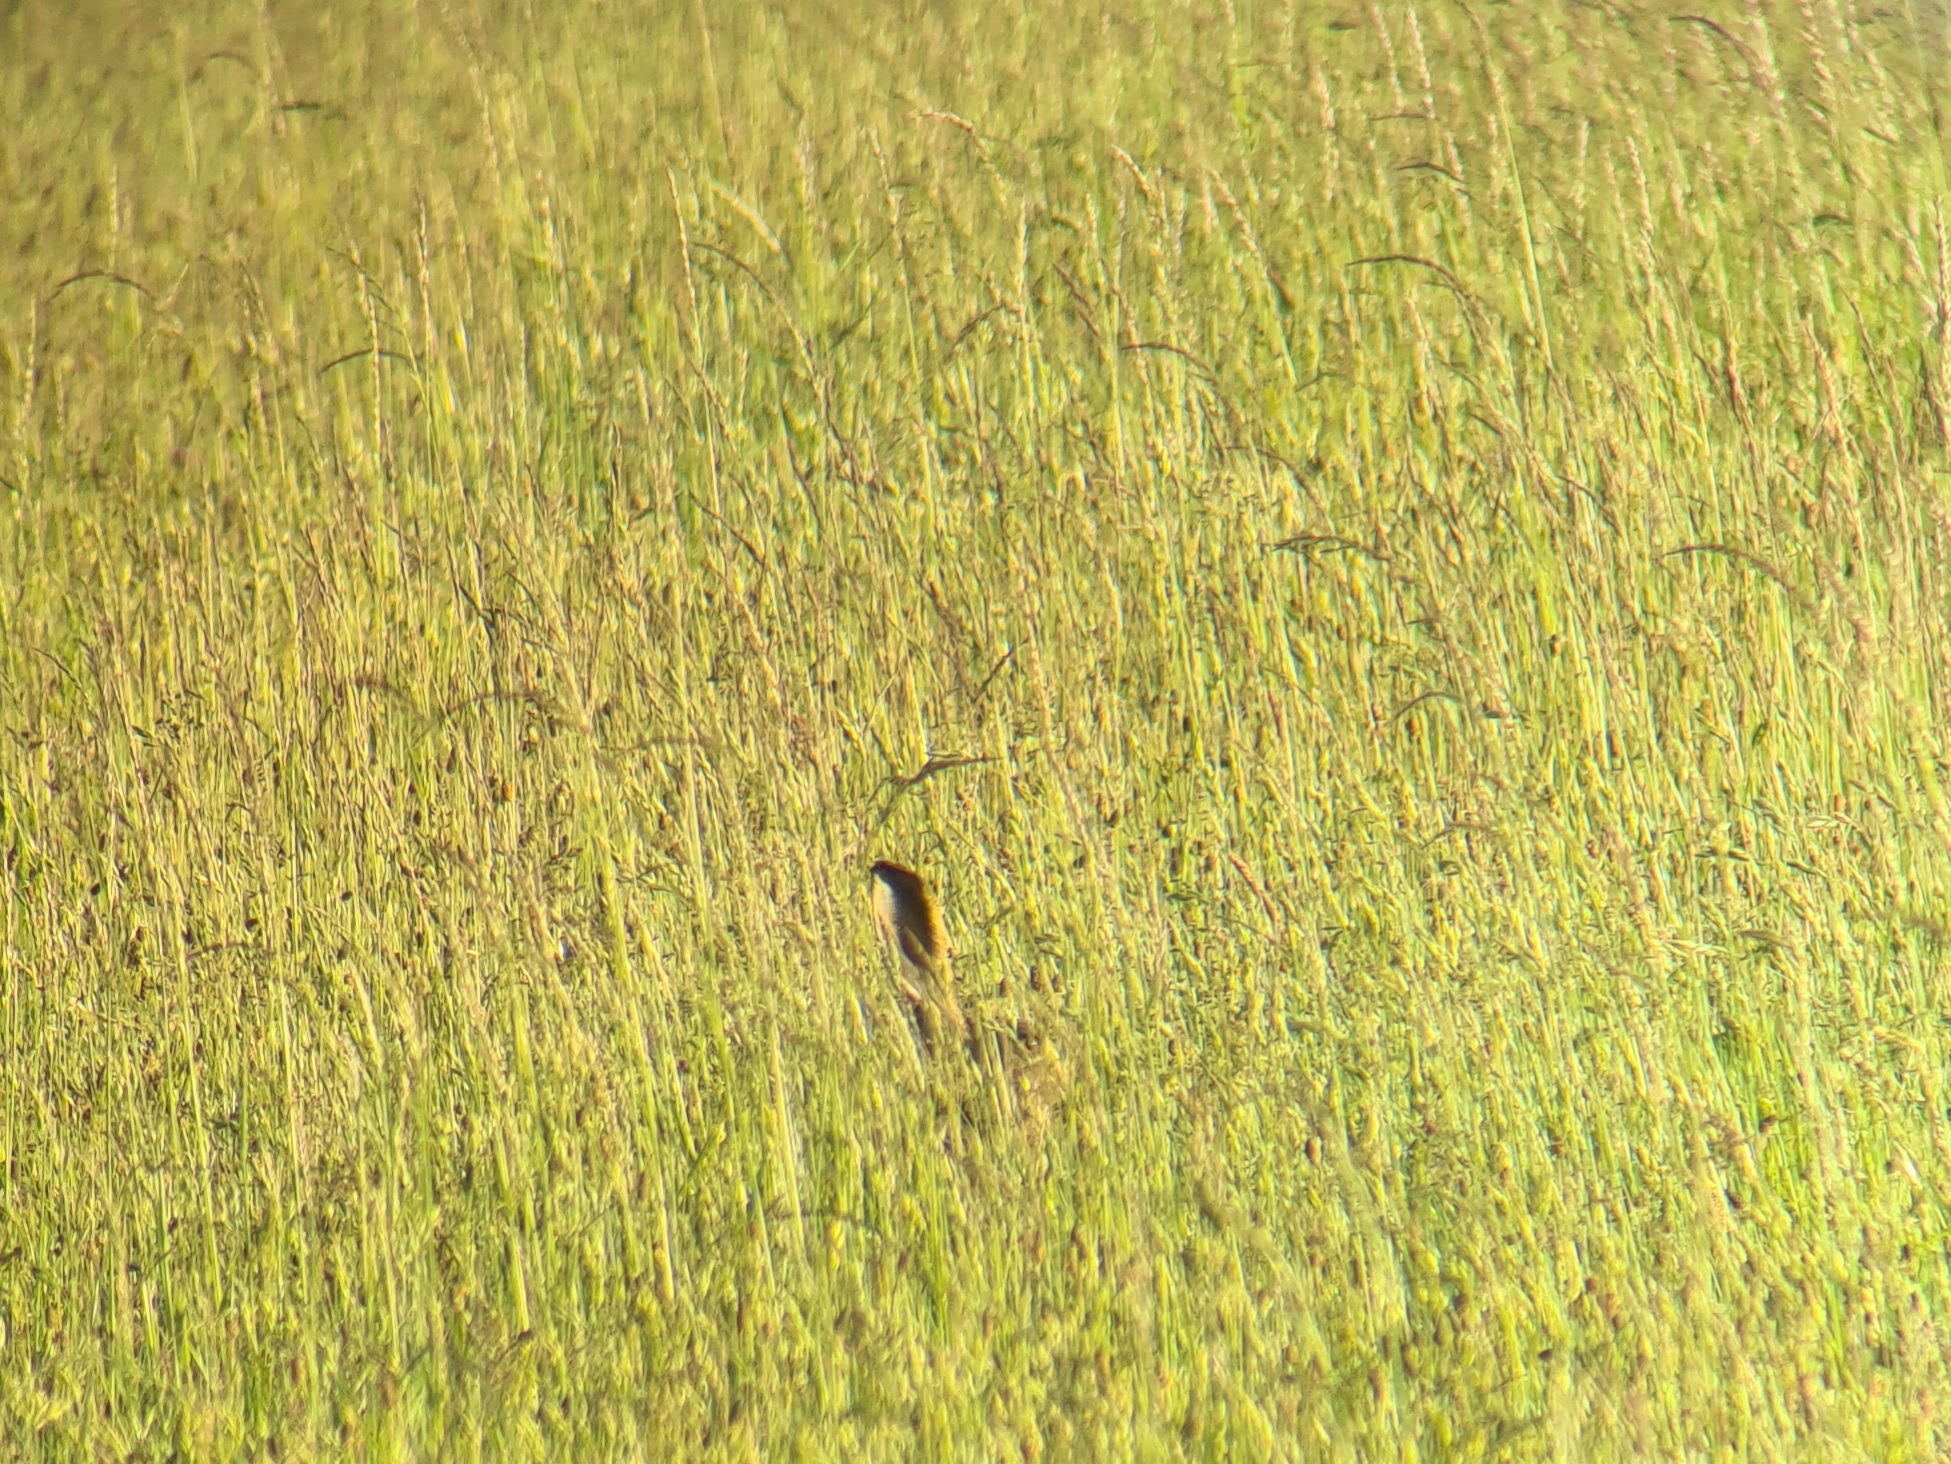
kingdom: Animalia
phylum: Chordata
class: Mammalia
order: Lagomorpha
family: Leporidae
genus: Lepus
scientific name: Lepus europaeus
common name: Hare
